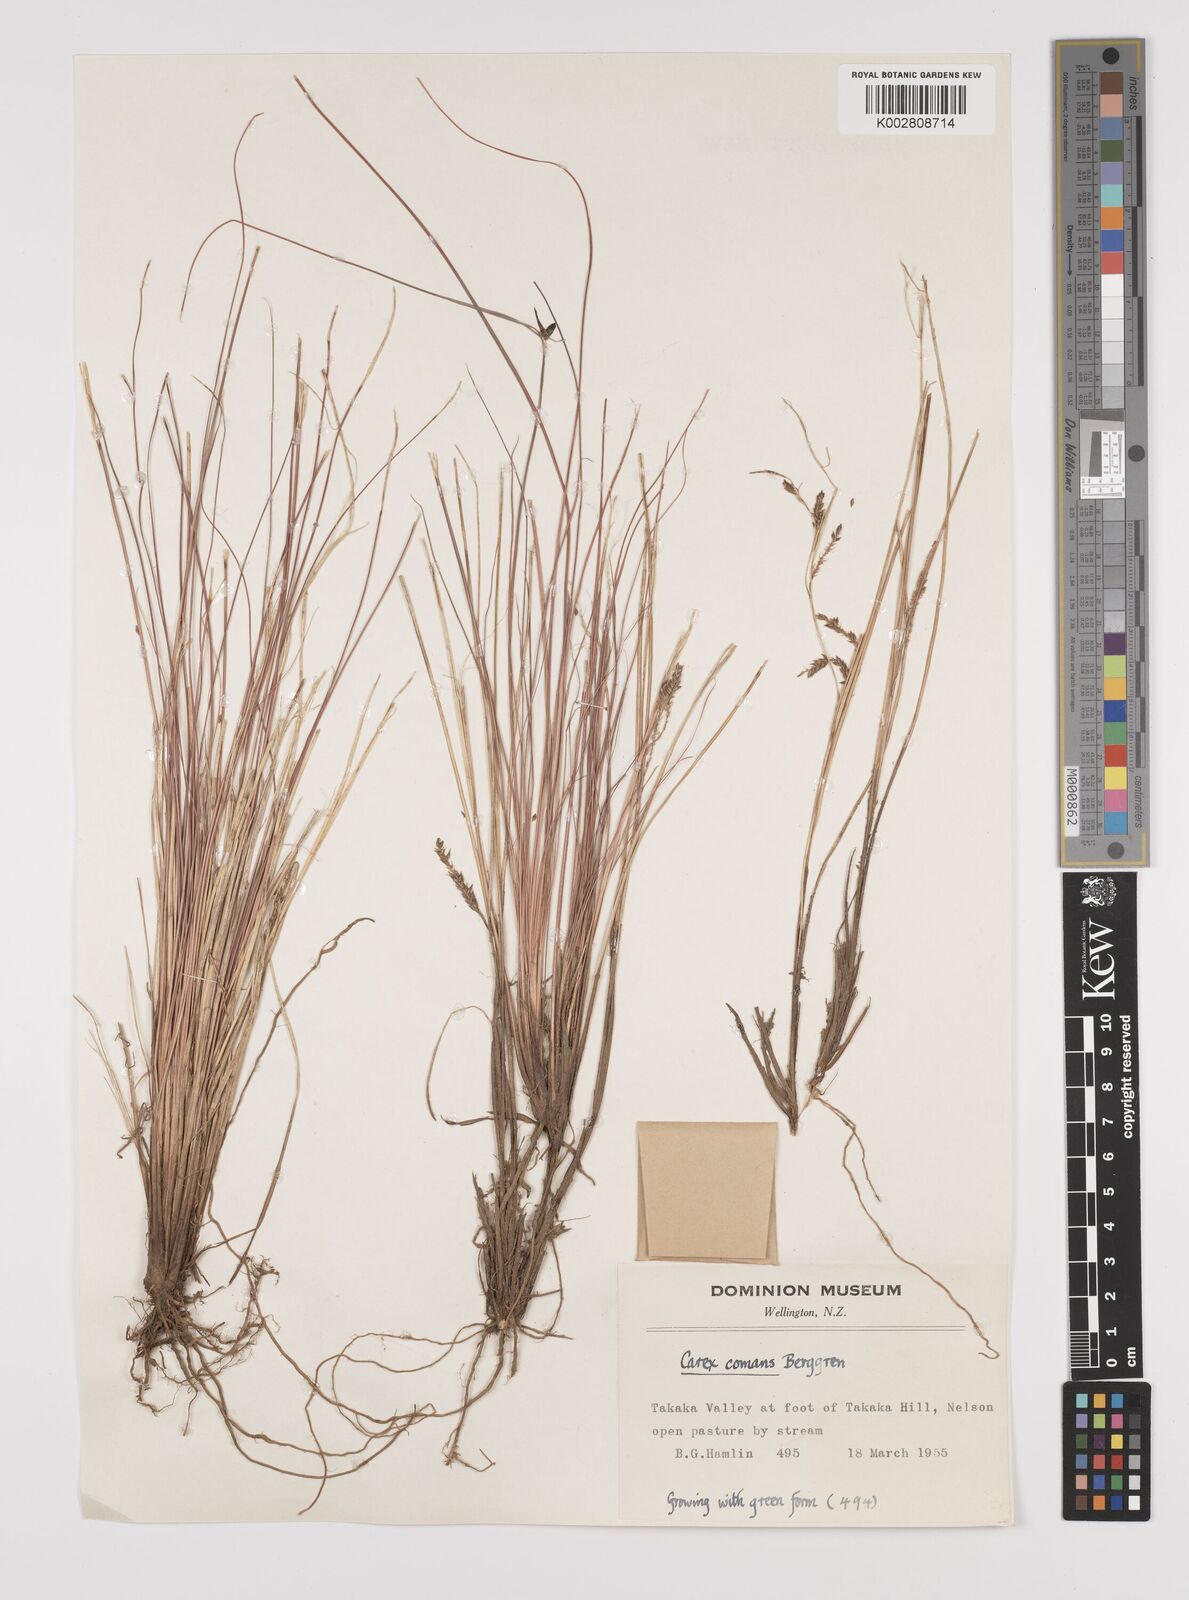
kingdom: Plantae
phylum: Tracheophyta
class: Liliopsida
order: Poales
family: Cyperaceae
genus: Carex
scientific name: Carex comans
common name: Longwood tussock
